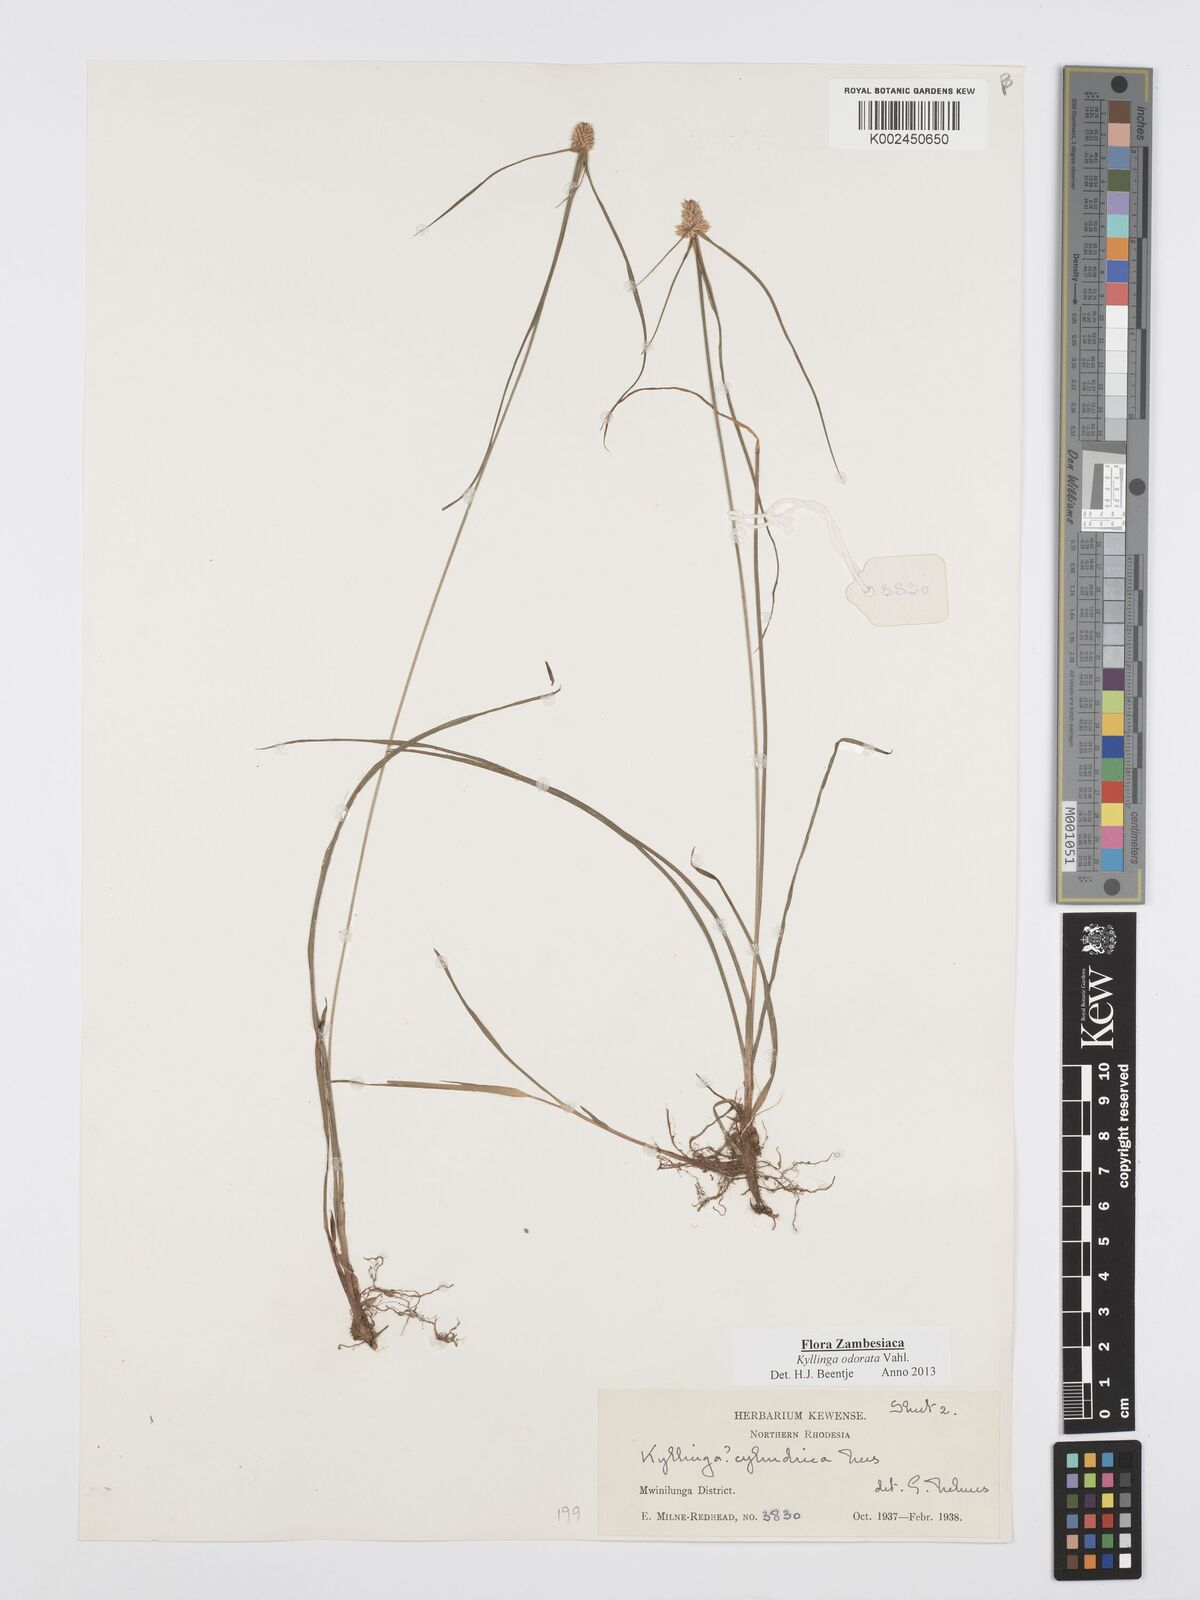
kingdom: Plantae
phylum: Tracheophyta
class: Liliopsida
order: Poales
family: Cyperaceae
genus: Cyperus
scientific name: Cyperus
